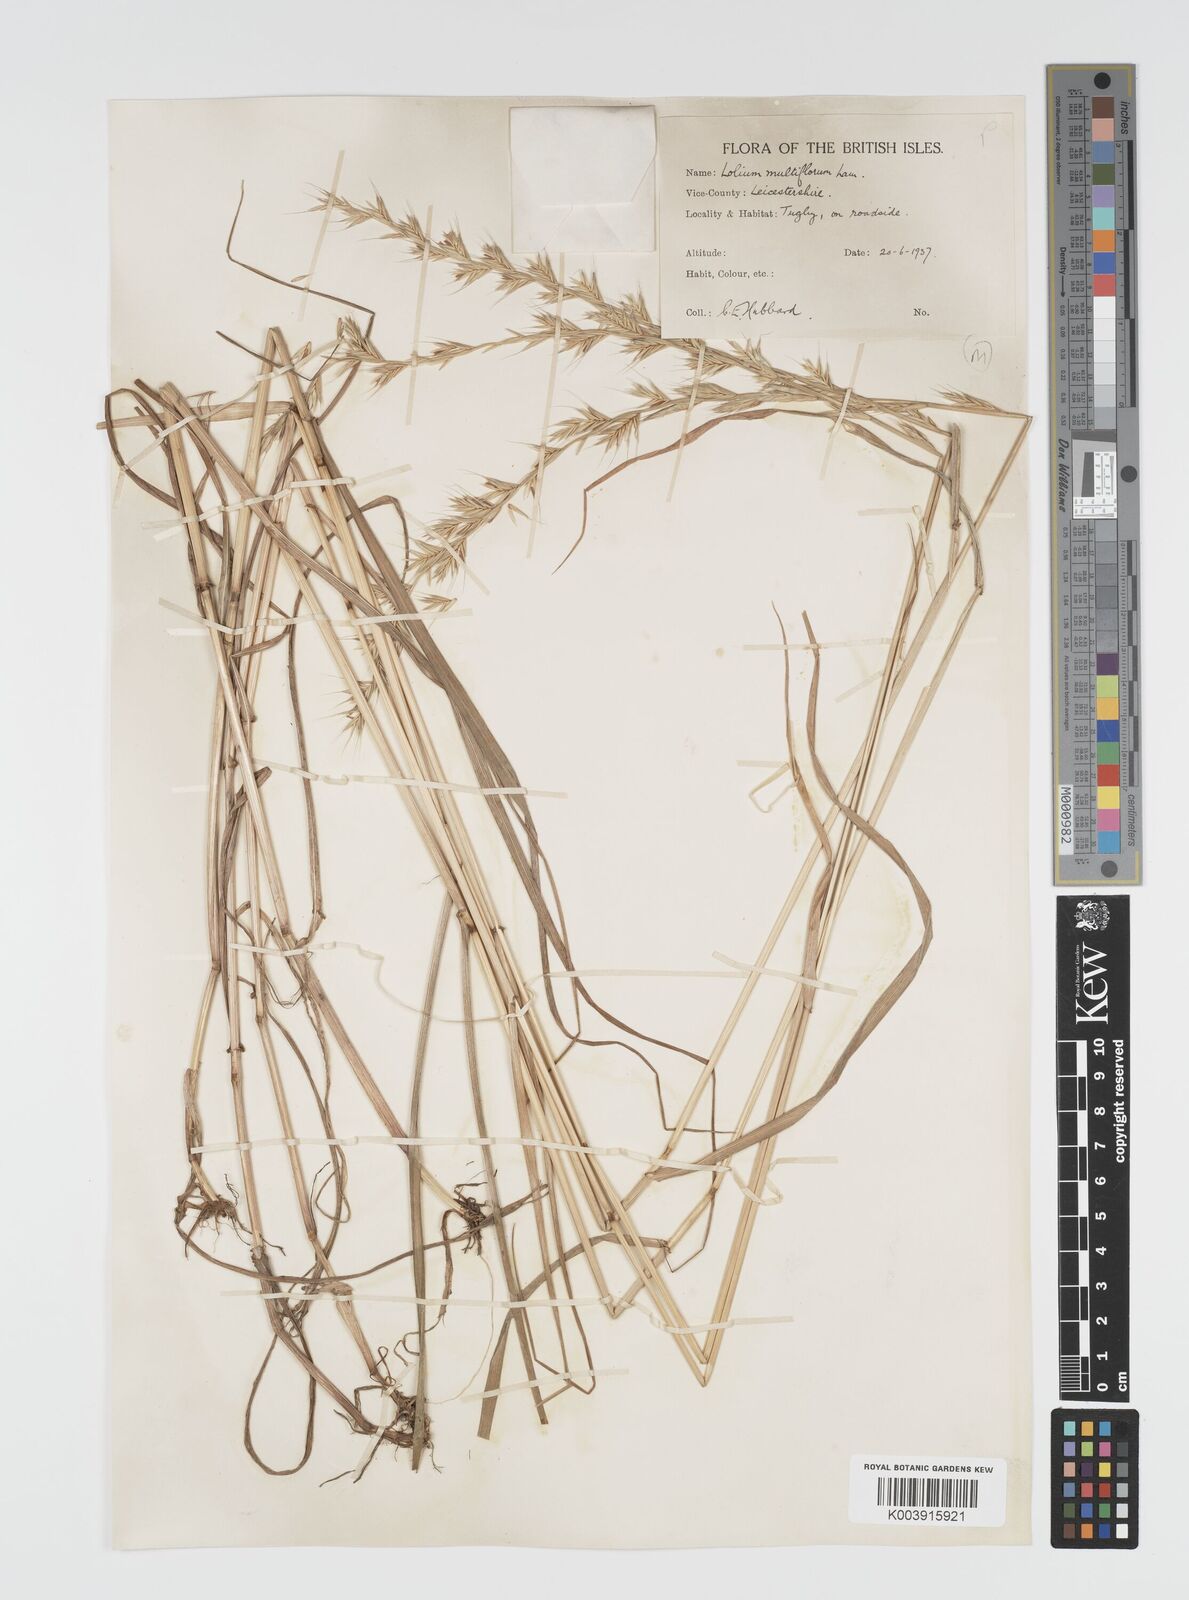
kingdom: Plantae
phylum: Tracheophyta
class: Liliopsida
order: Poales
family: Poaceae
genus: Lolium
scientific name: Lolium multiflorum
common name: Annual ryegrass
